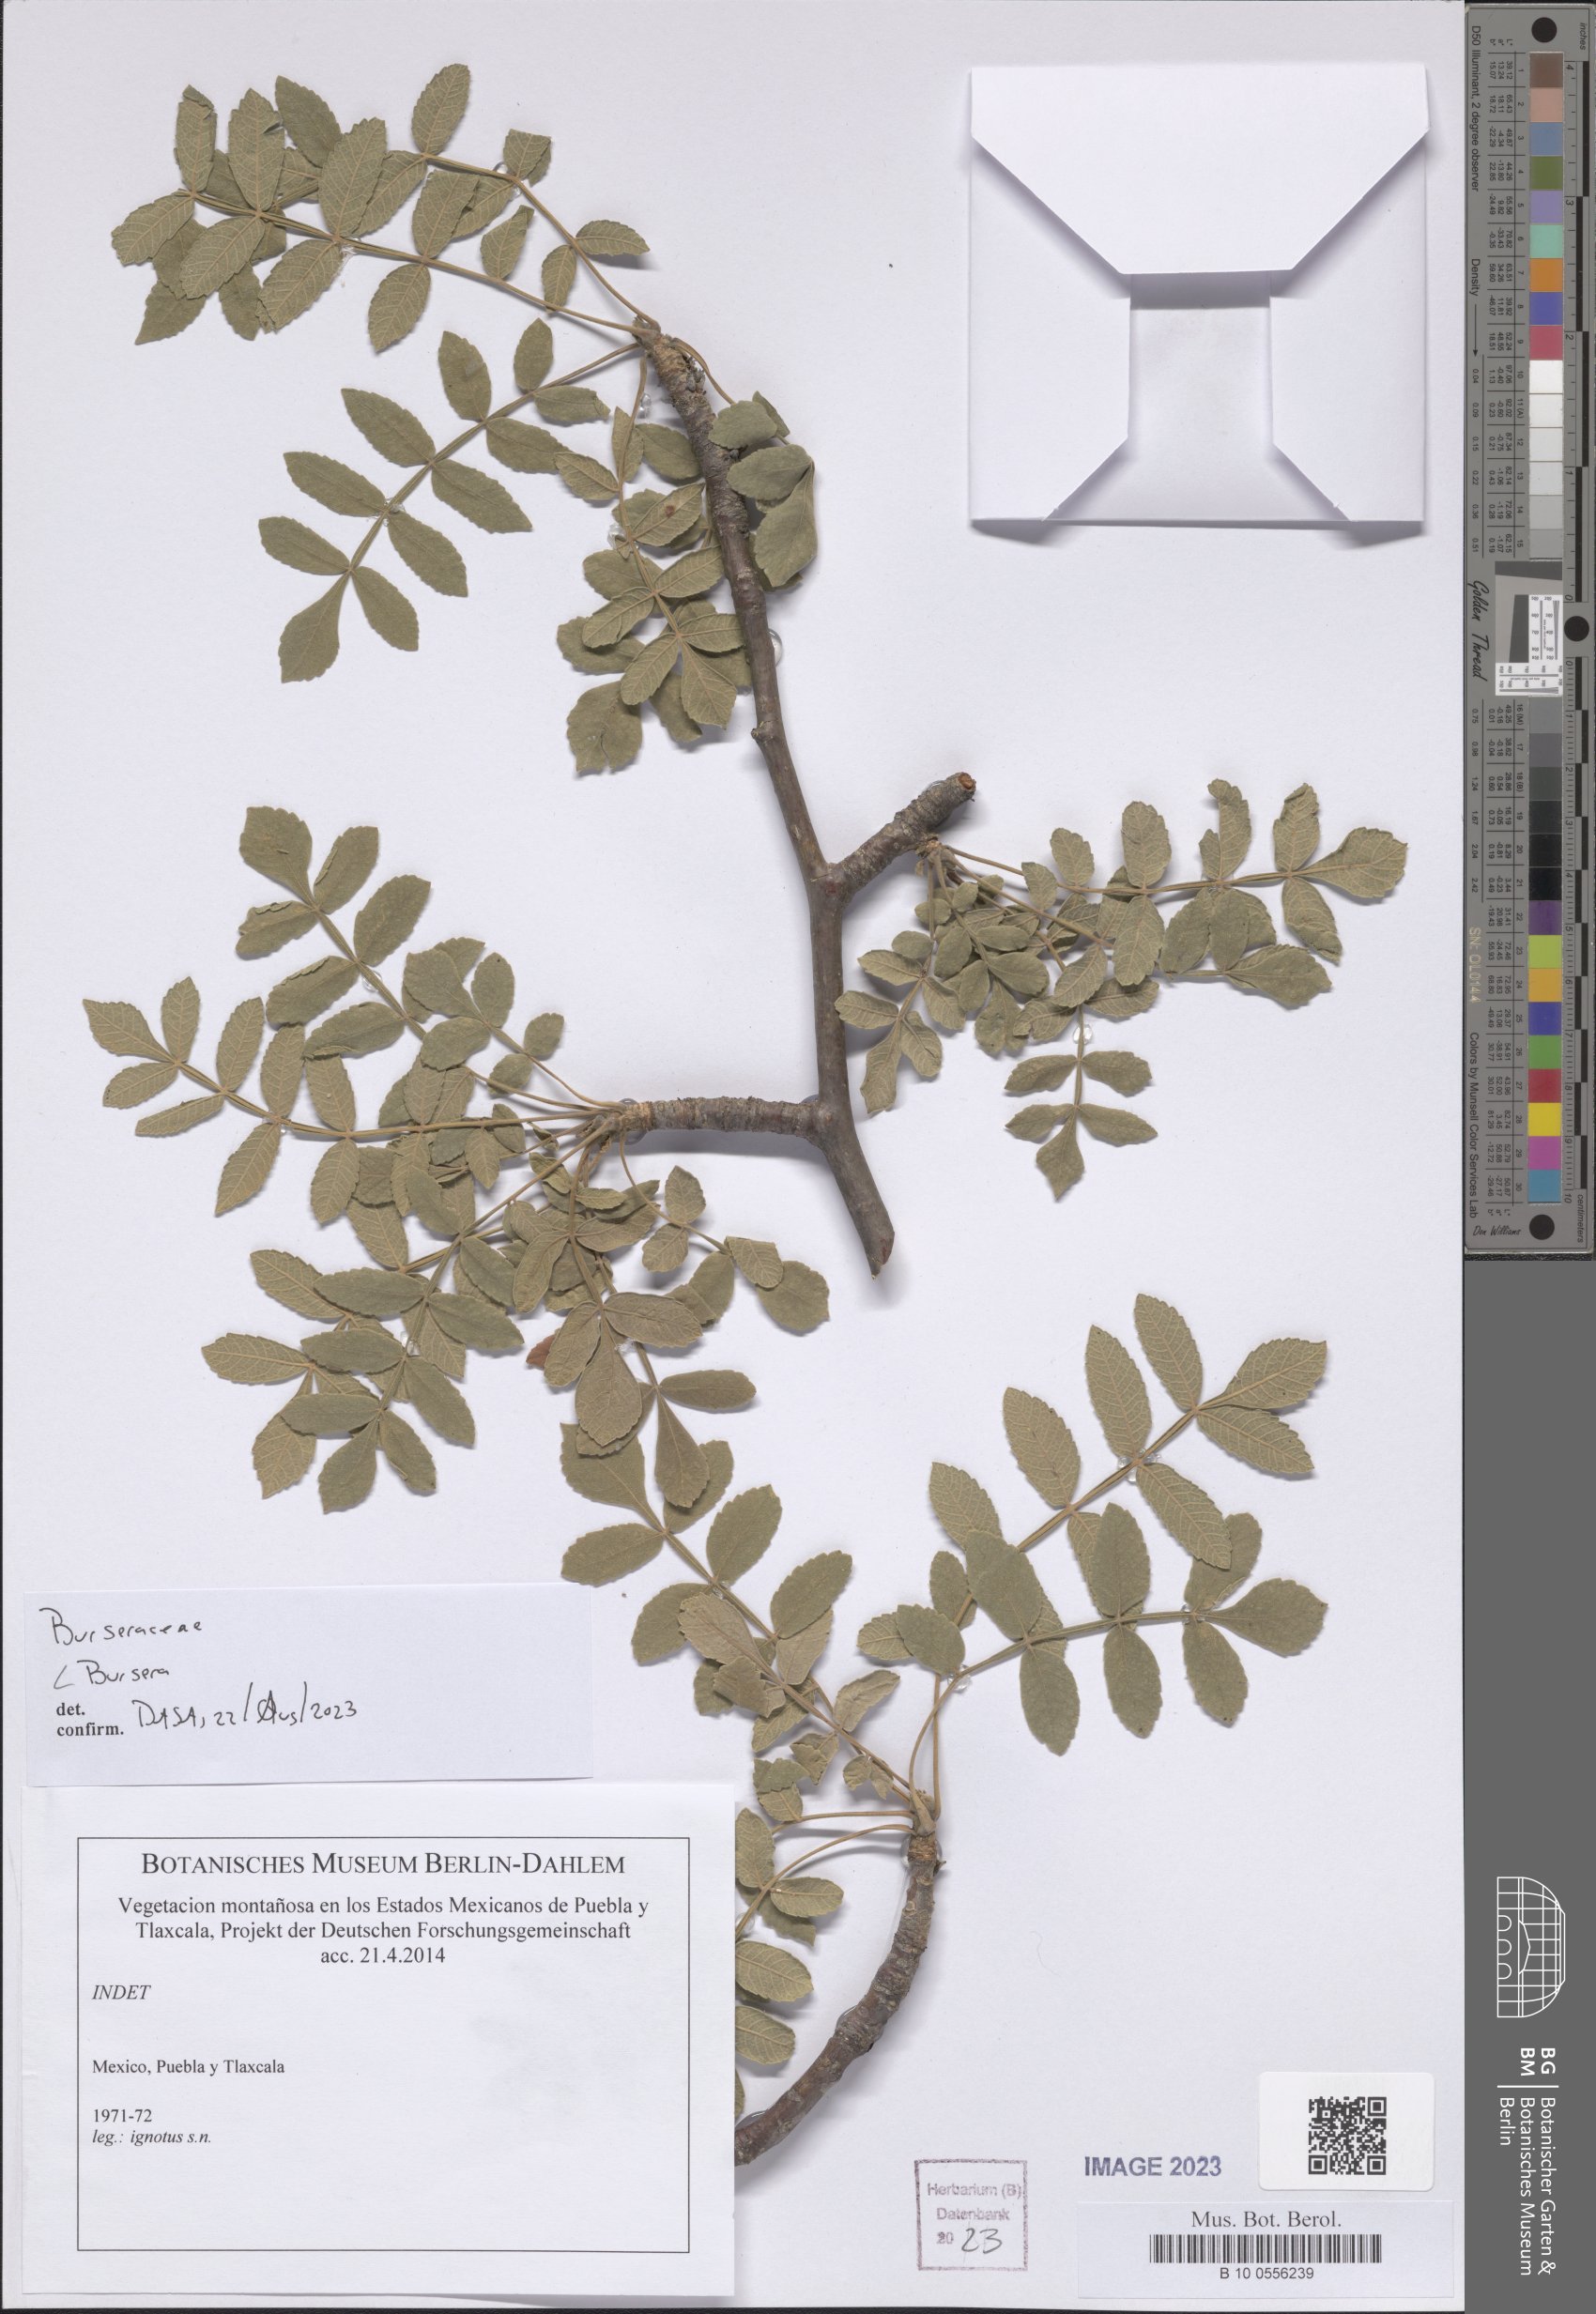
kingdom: Plantae
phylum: Tracheophyta
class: Magnoliopsida
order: Sapindales
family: Burseraceae
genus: Bursera
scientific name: Bursera
